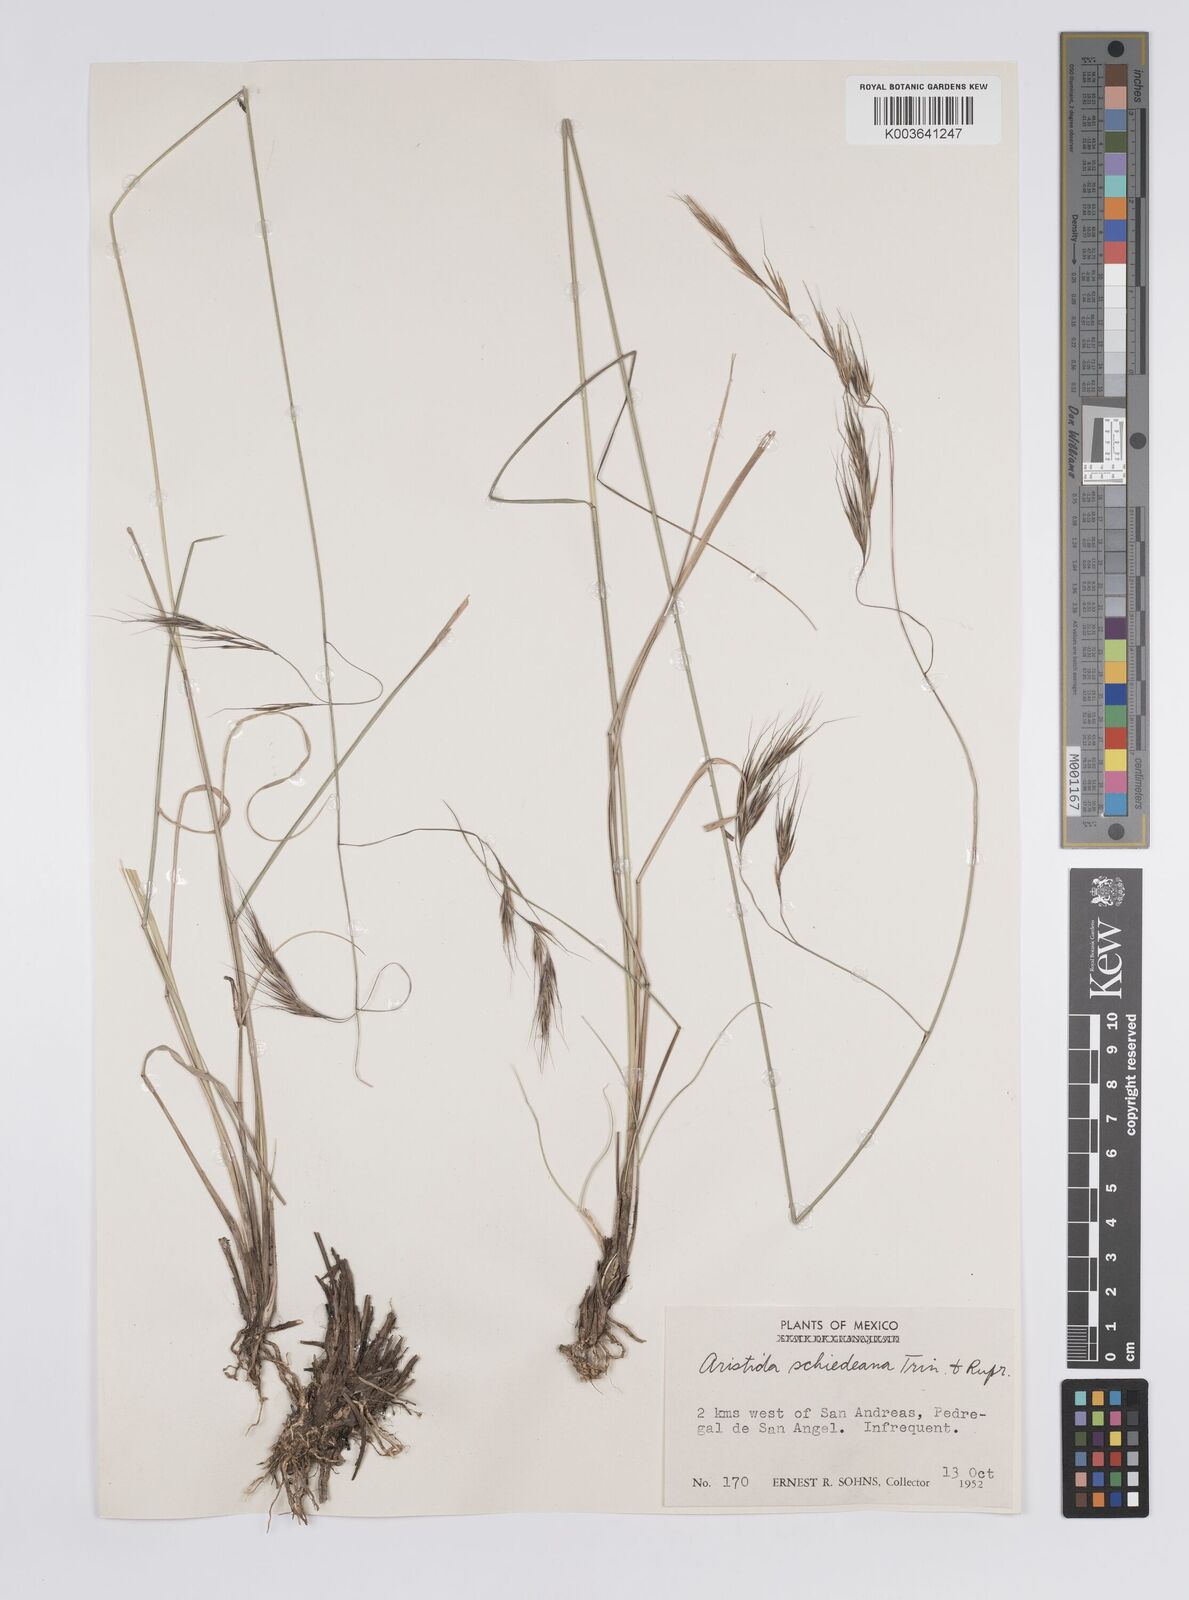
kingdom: Plantae
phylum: Tracheophyta
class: Liliopsida
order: Poales
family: Poaceae
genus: Aristida
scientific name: Aristida schiedeana
